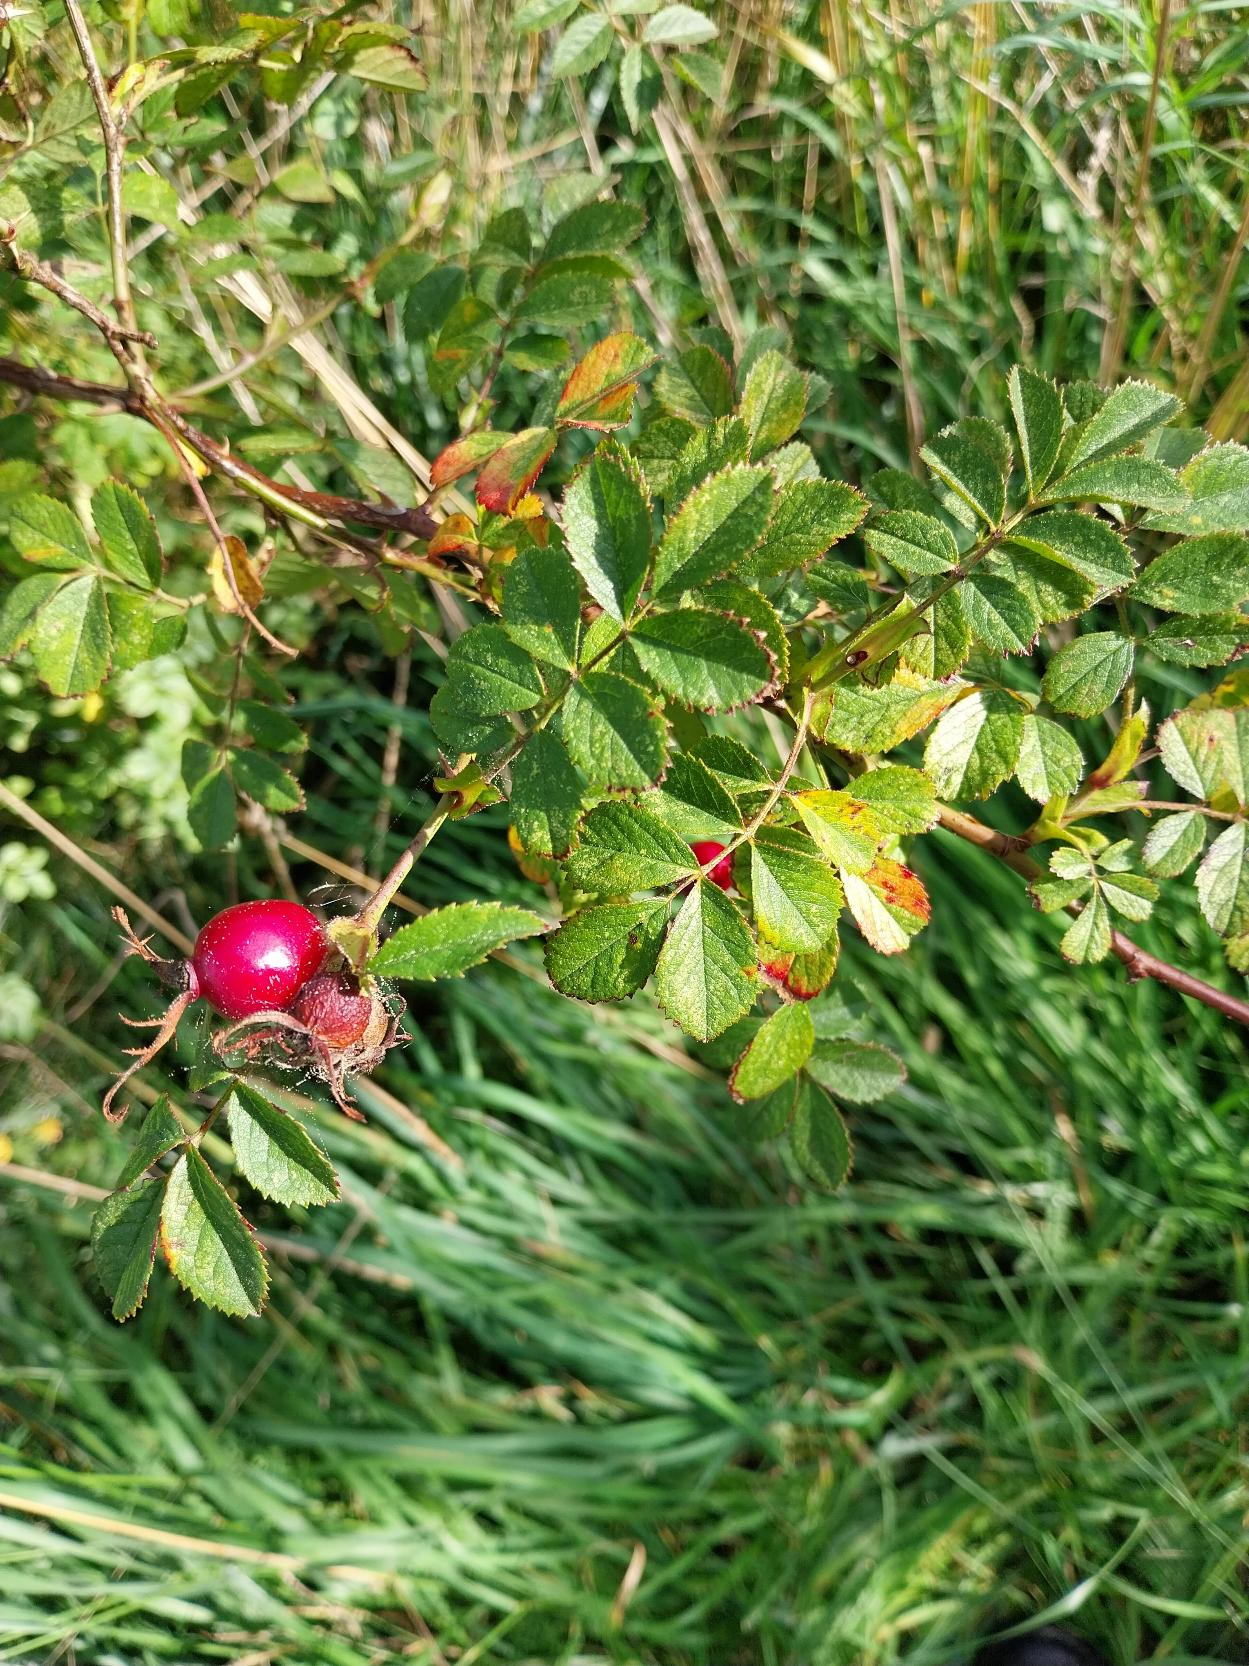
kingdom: Plantae
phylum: Tracheophyta
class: Magnoliopsida
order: Rosales
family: Rosaceae
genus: Rosa
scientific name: Rosa balsamica
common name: Rubladet rose
